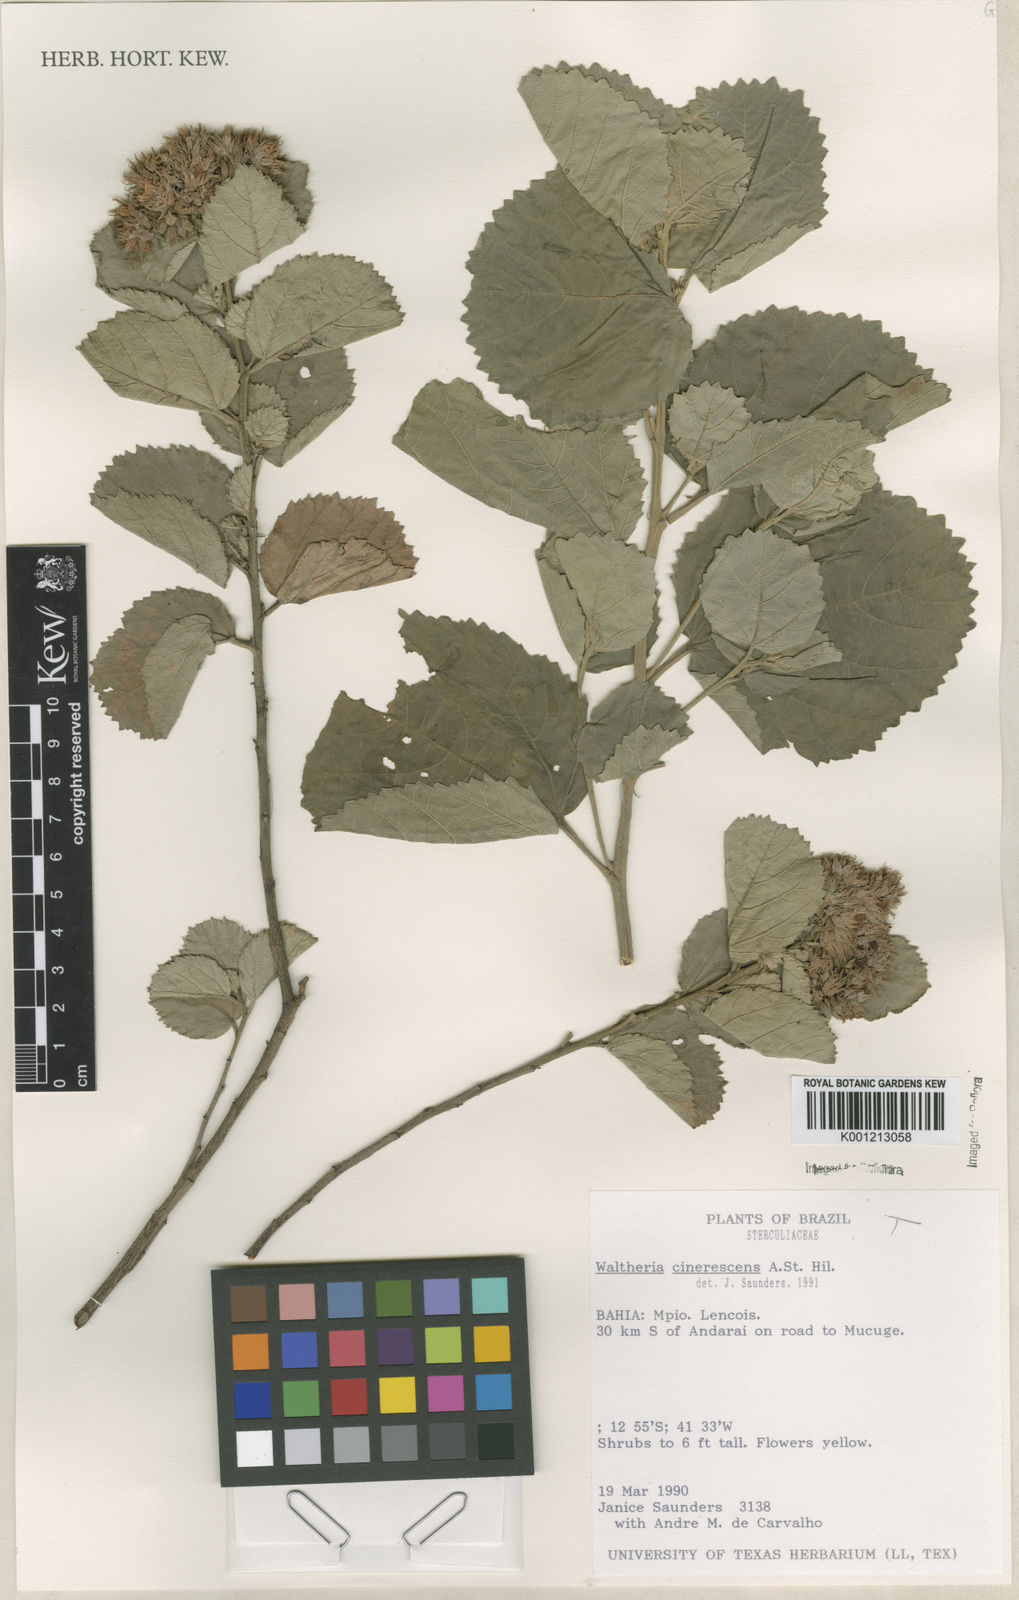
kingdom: Plantae
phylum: Tracheophyta
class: Magnoliopsida
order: Malvales
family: Malvaceae
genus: Waltheria
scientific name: Waltheria cinerescens
